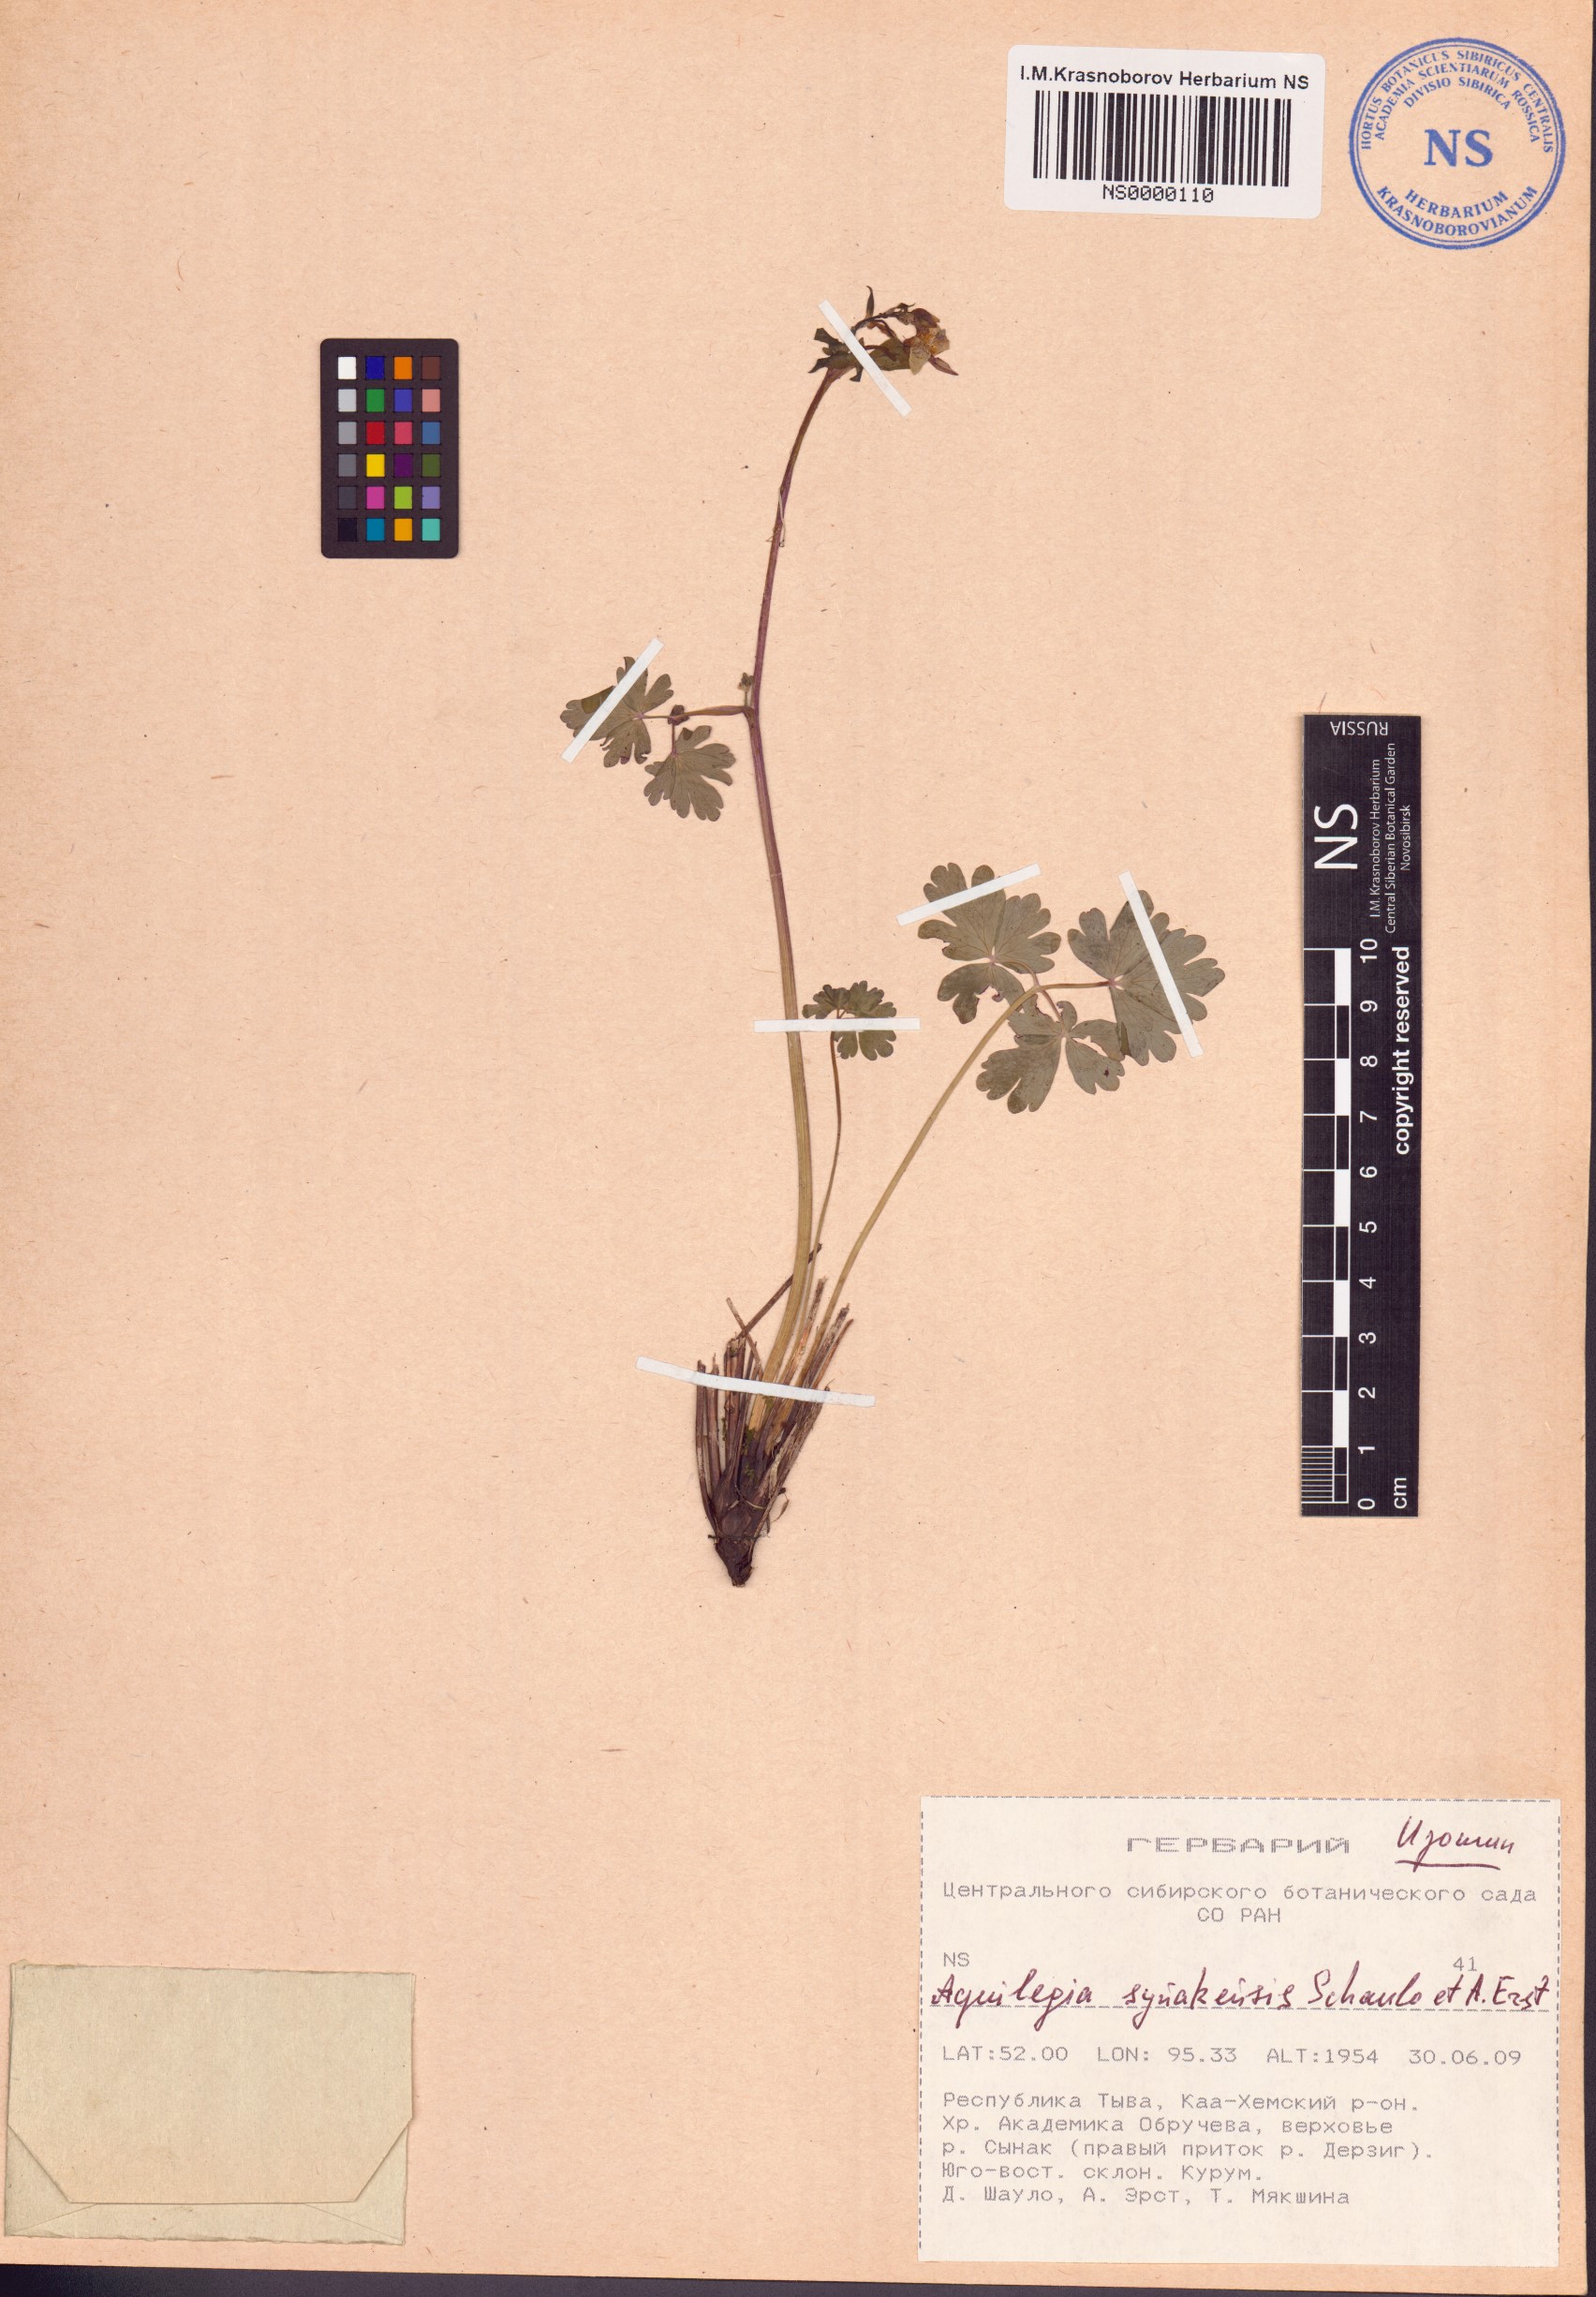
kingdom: Plantae
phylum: Tracheophyta
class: Magnoliopsida
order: Ranunculales
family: Ranunculaceae
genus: Aquilegia
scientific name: Aquilegia synakensis
